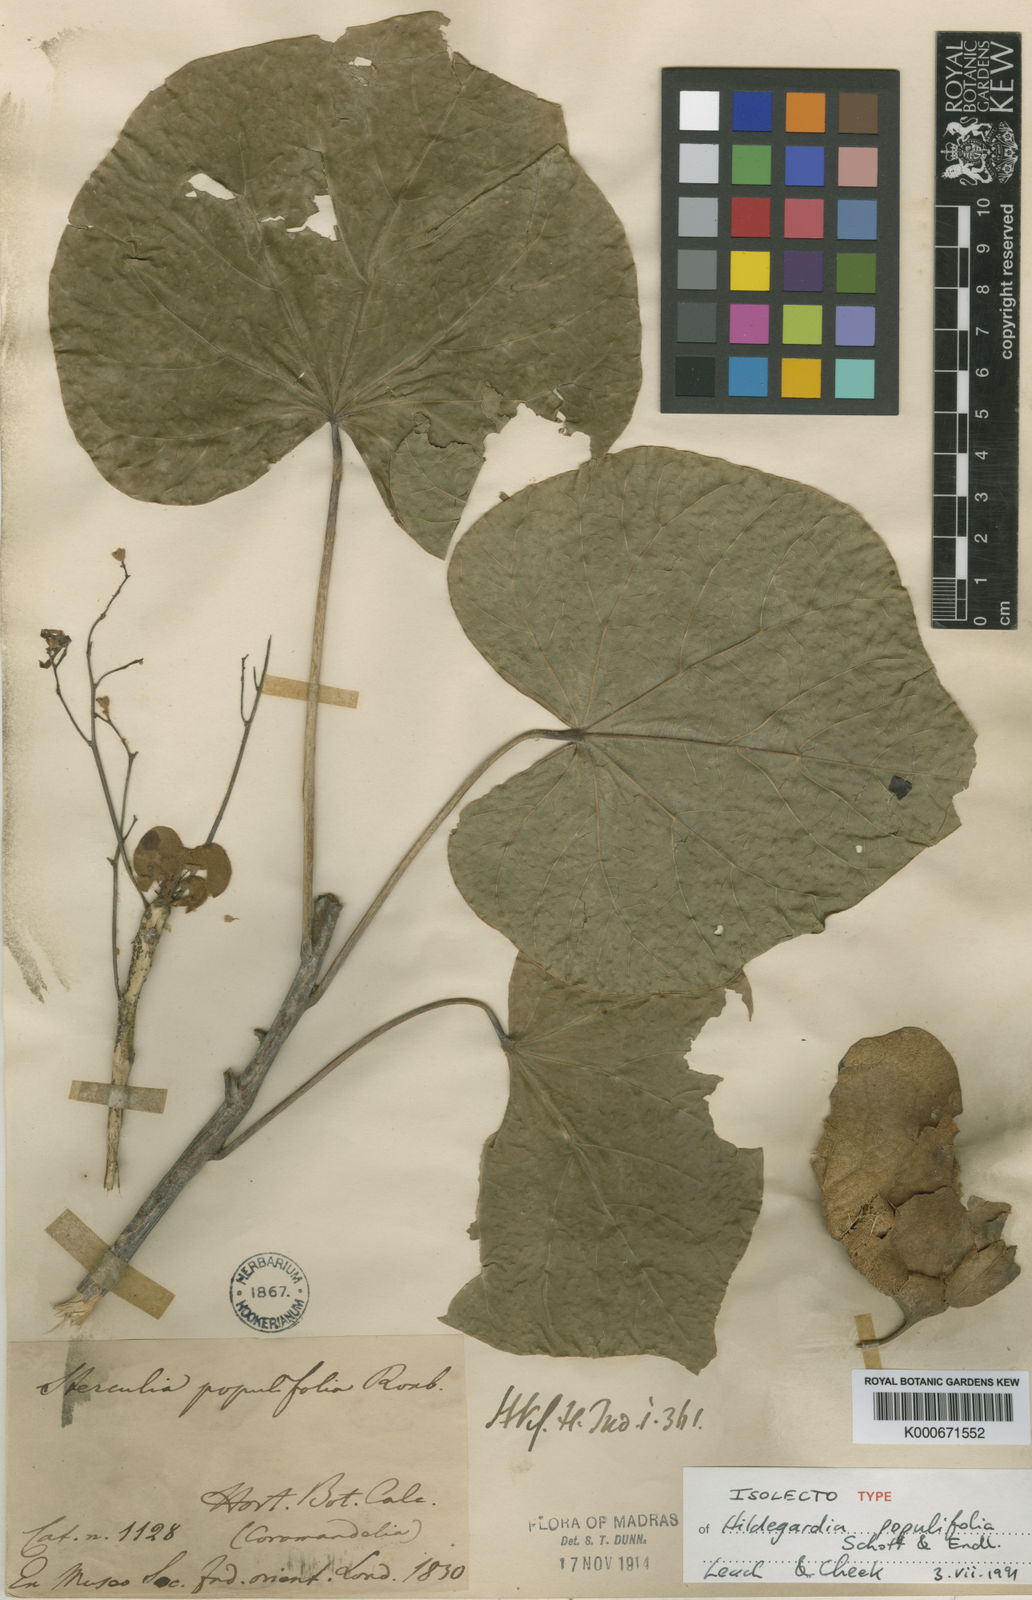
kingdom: Plantae
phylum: Tracheophyta
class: Magnoliopsida
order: Malvales
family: Malvaceae
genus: Hildegardia
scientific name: Hildegardia populifolia
